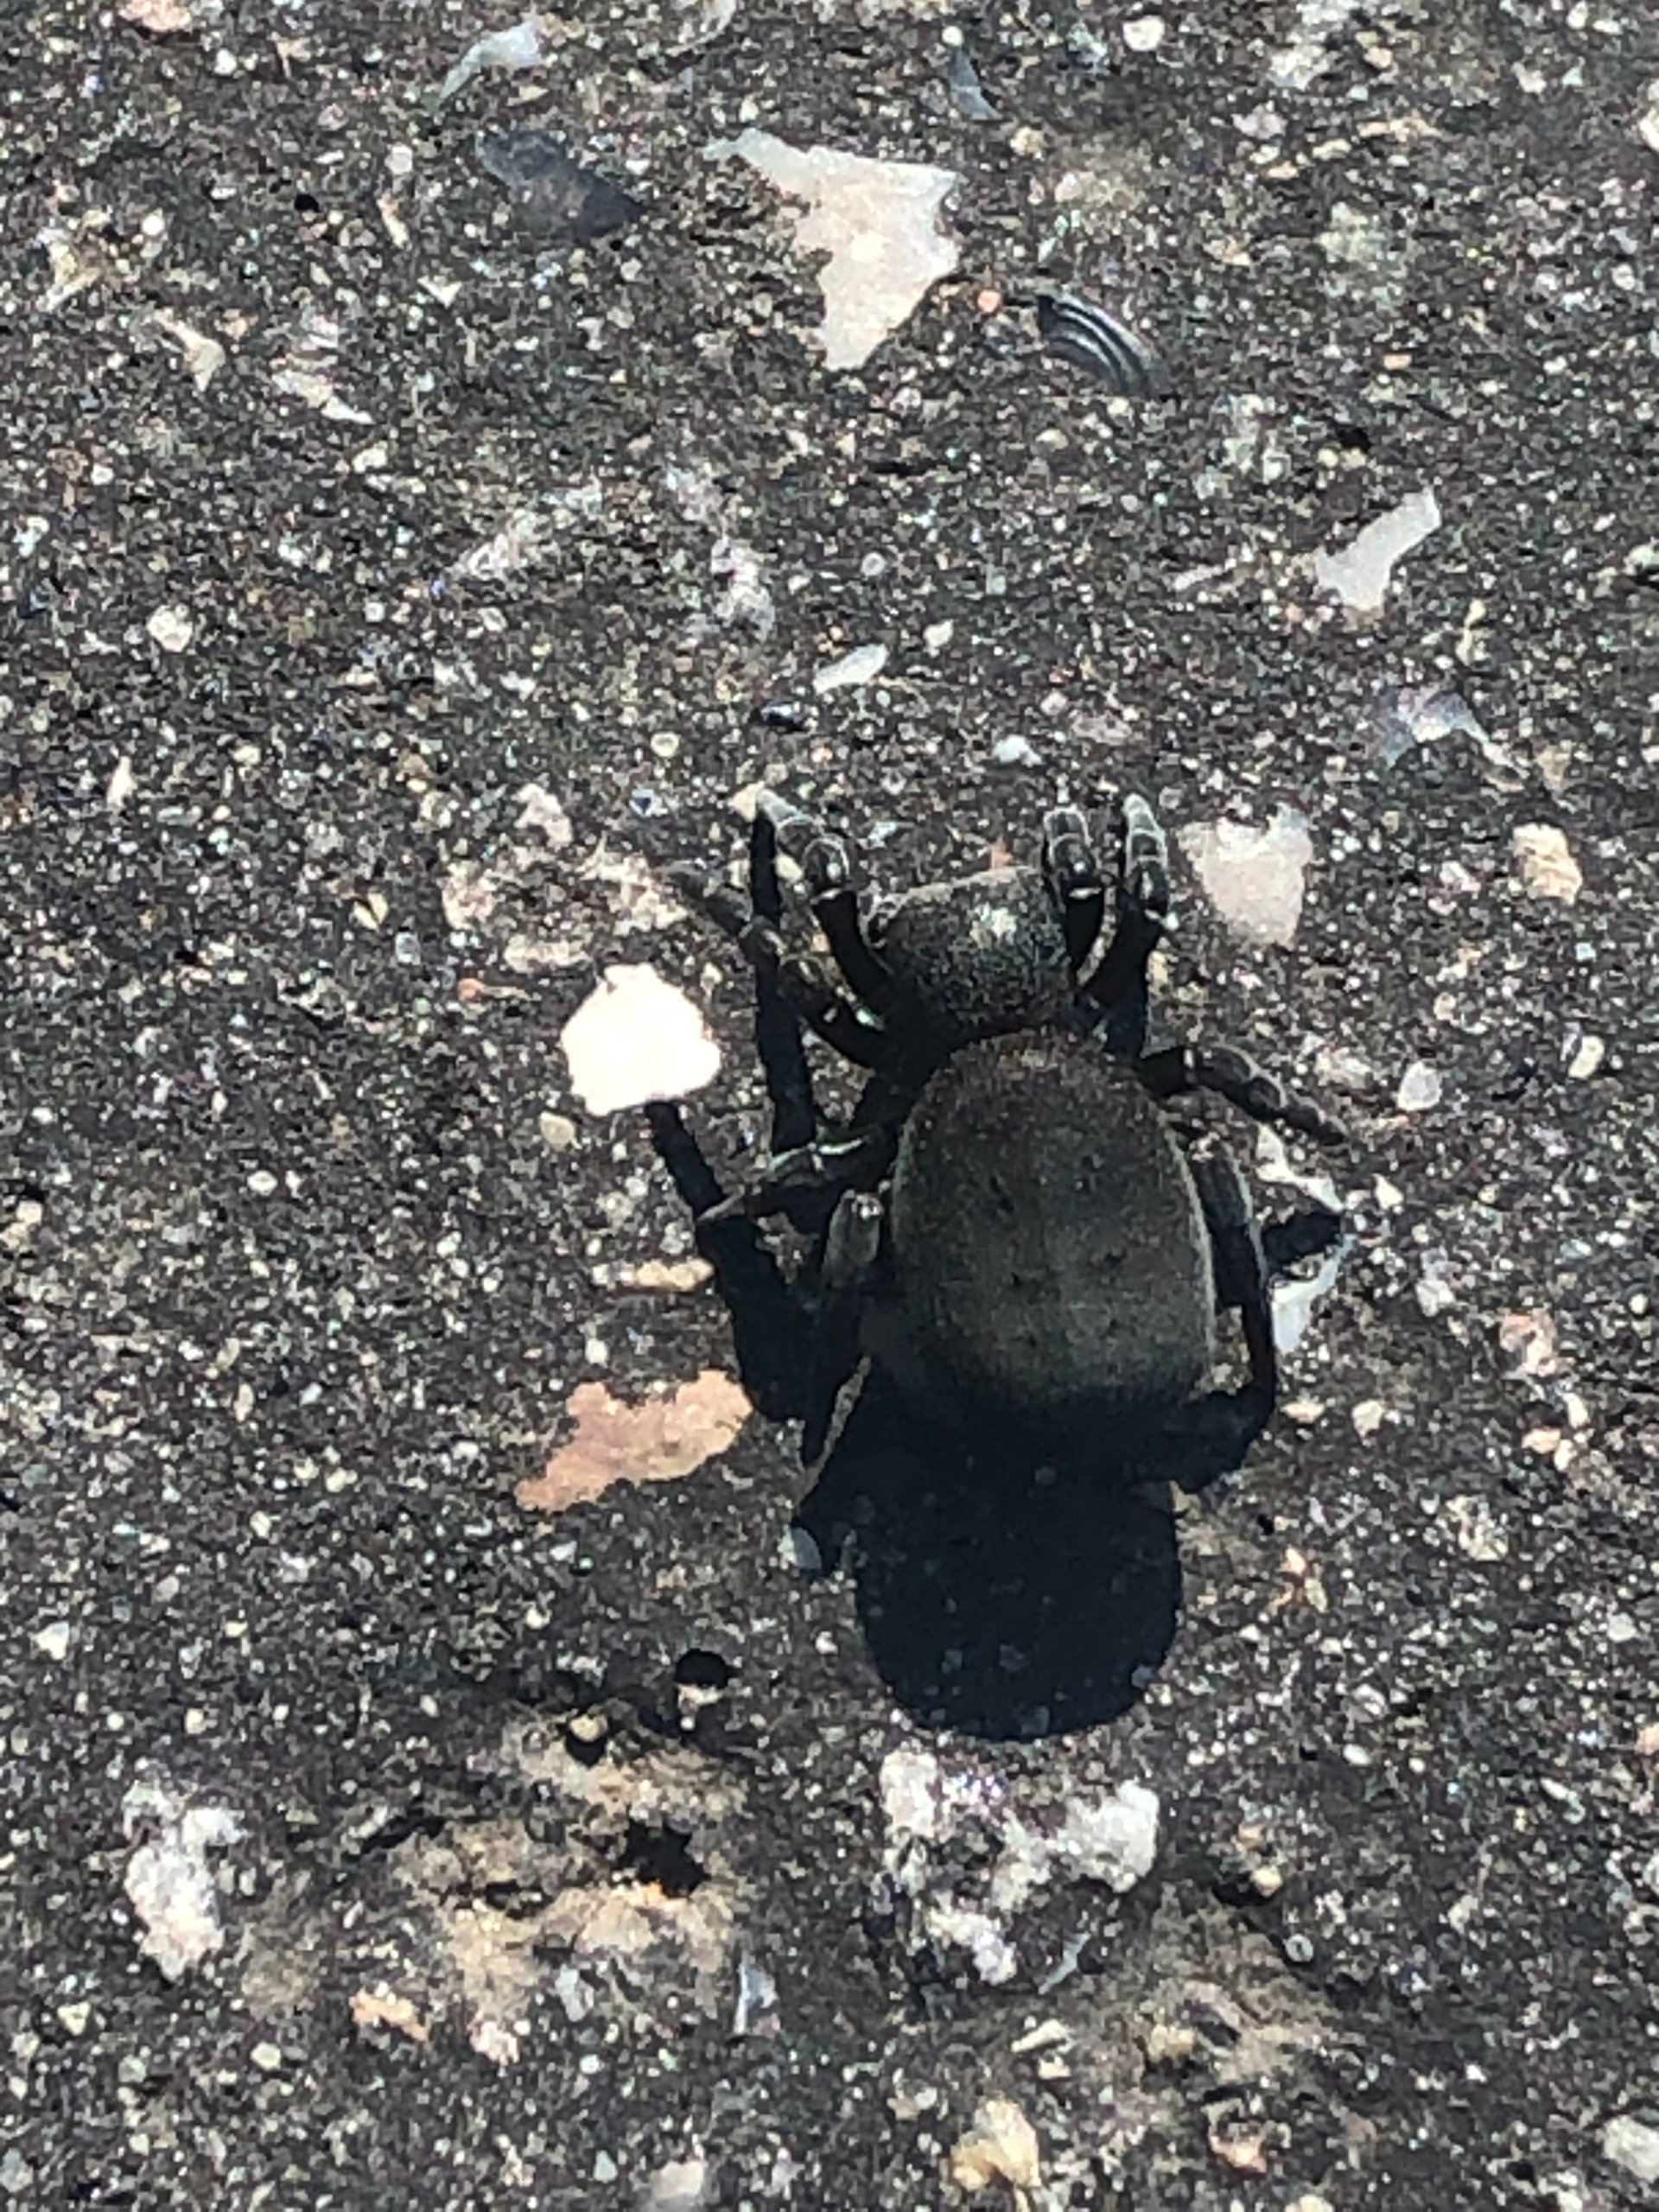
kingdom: Animalia
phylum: Arthropoda
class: Arachnida
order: Araneae
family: Eresidae
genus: Eresus
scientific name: Eresus sandaliatus
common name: Mariehøneedderkop
